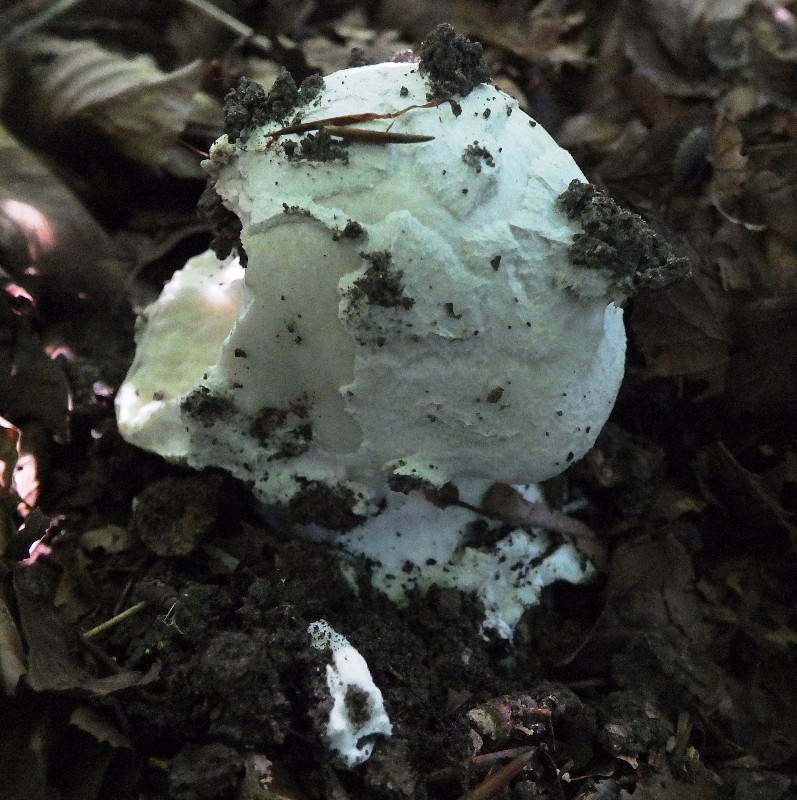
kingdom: Fungi
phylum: Basidiomycota
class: Agaricomycetes
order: Agaricales
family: Amanitaceae
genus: Amanita
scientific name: Amanita
